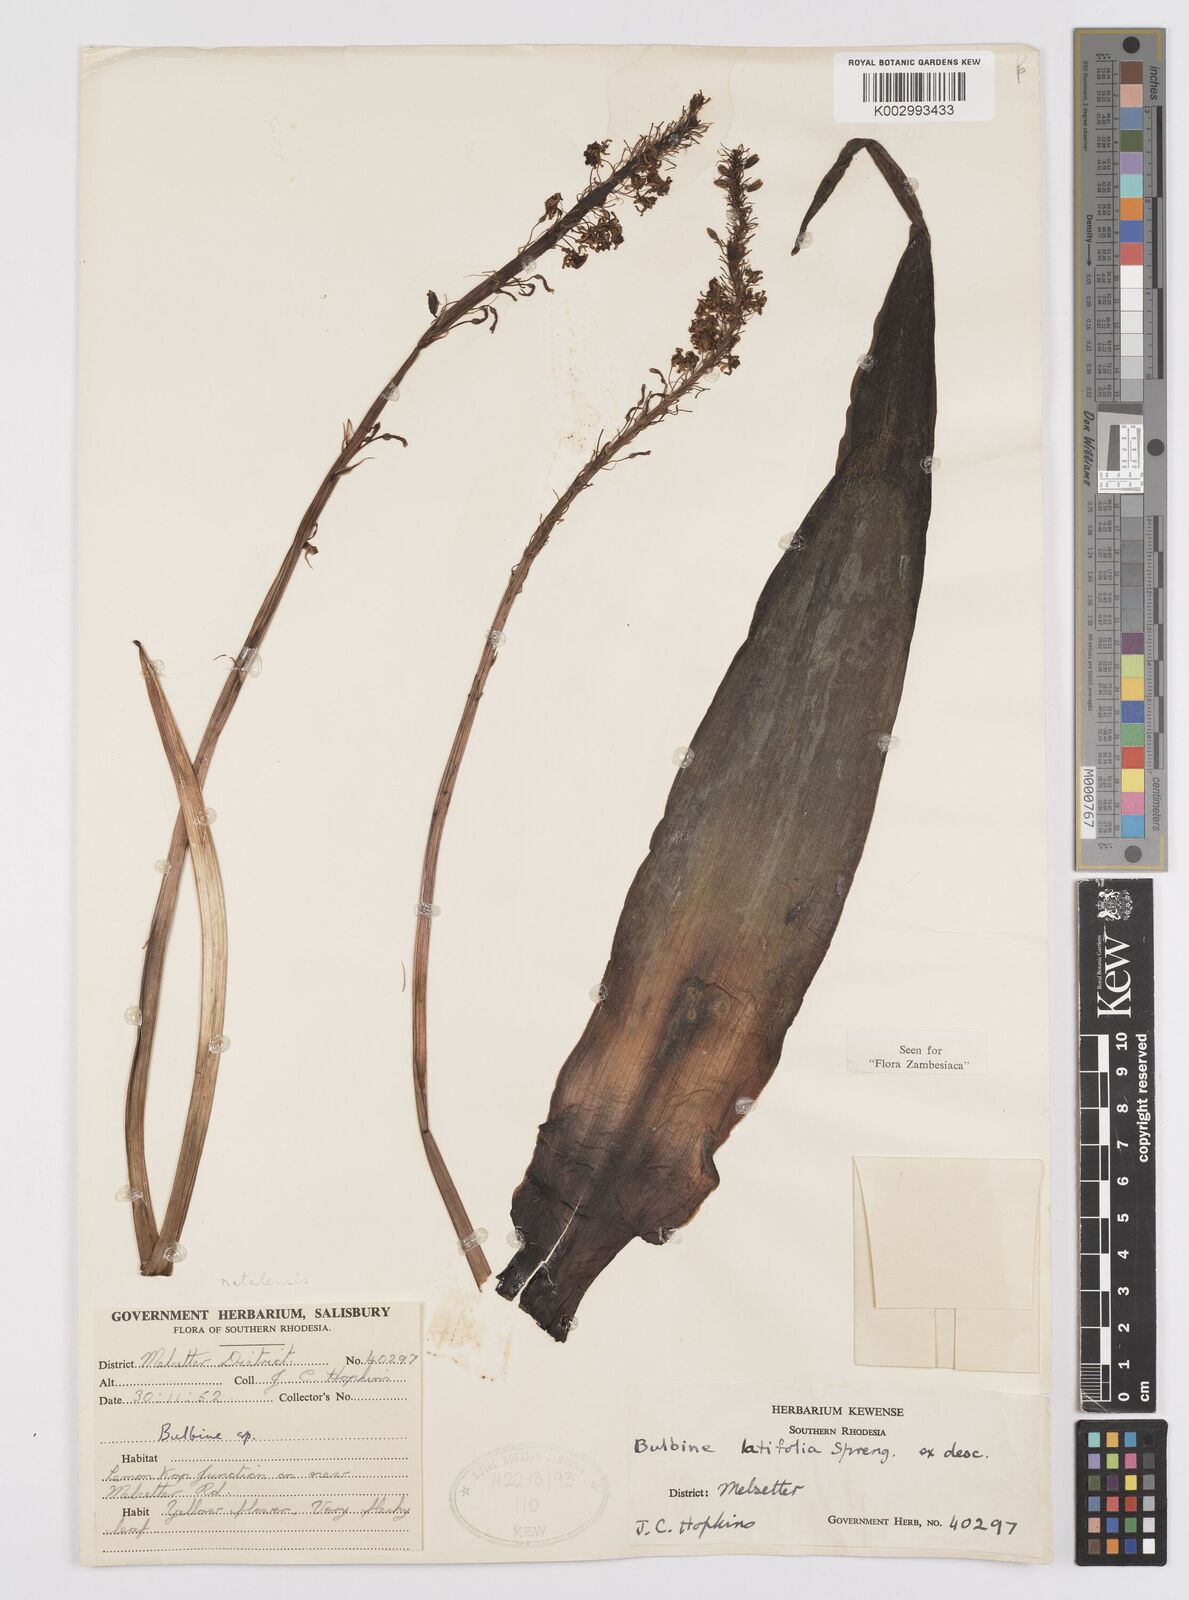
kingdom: Plantae
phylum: Tracheophyta
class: Liliopsida
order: Asparagales
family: Asphodelaceae
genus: Bulbine
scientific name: Bulbine
